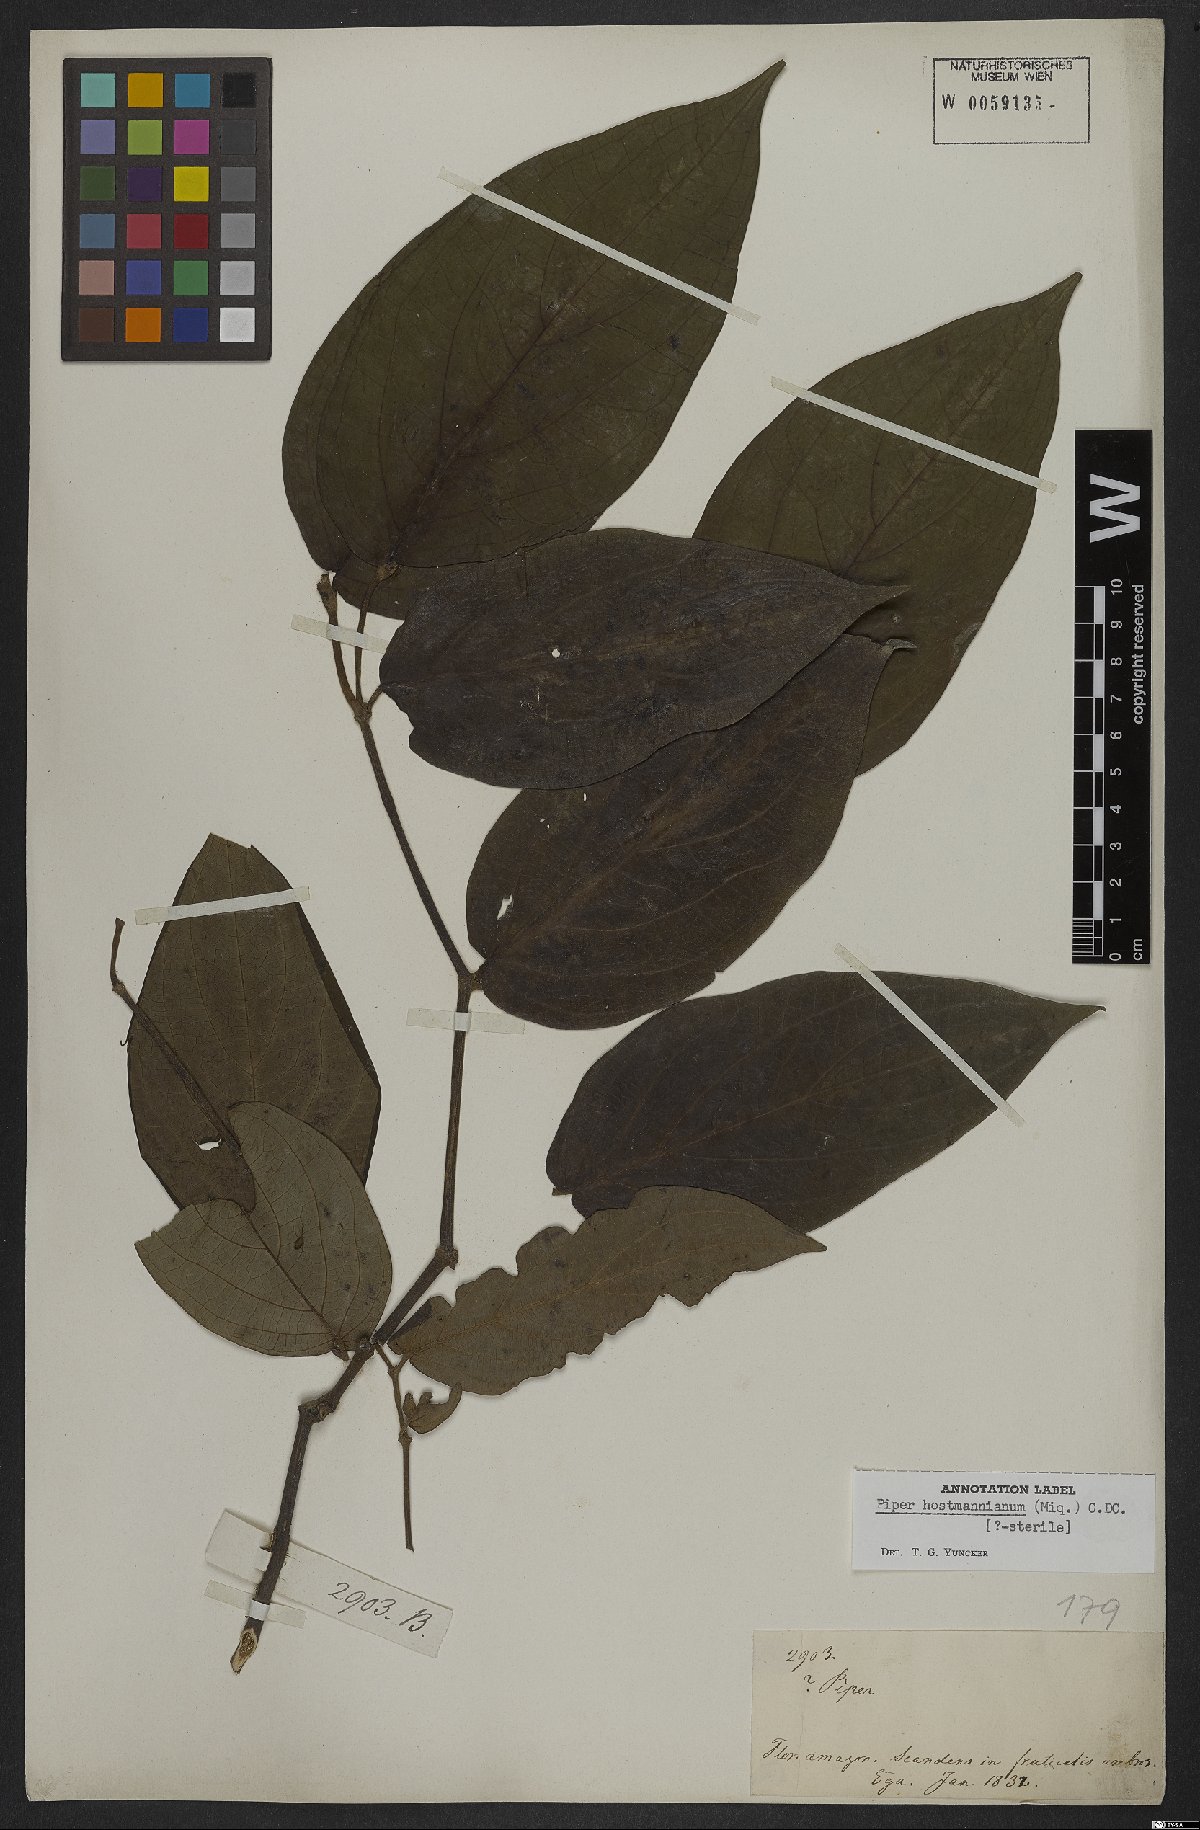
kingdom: Plantae
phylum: Tracheophyta
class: Magnoliopsida
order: Piperales
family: Piperaceae
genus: Piper
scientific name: Piper hostmannianum
